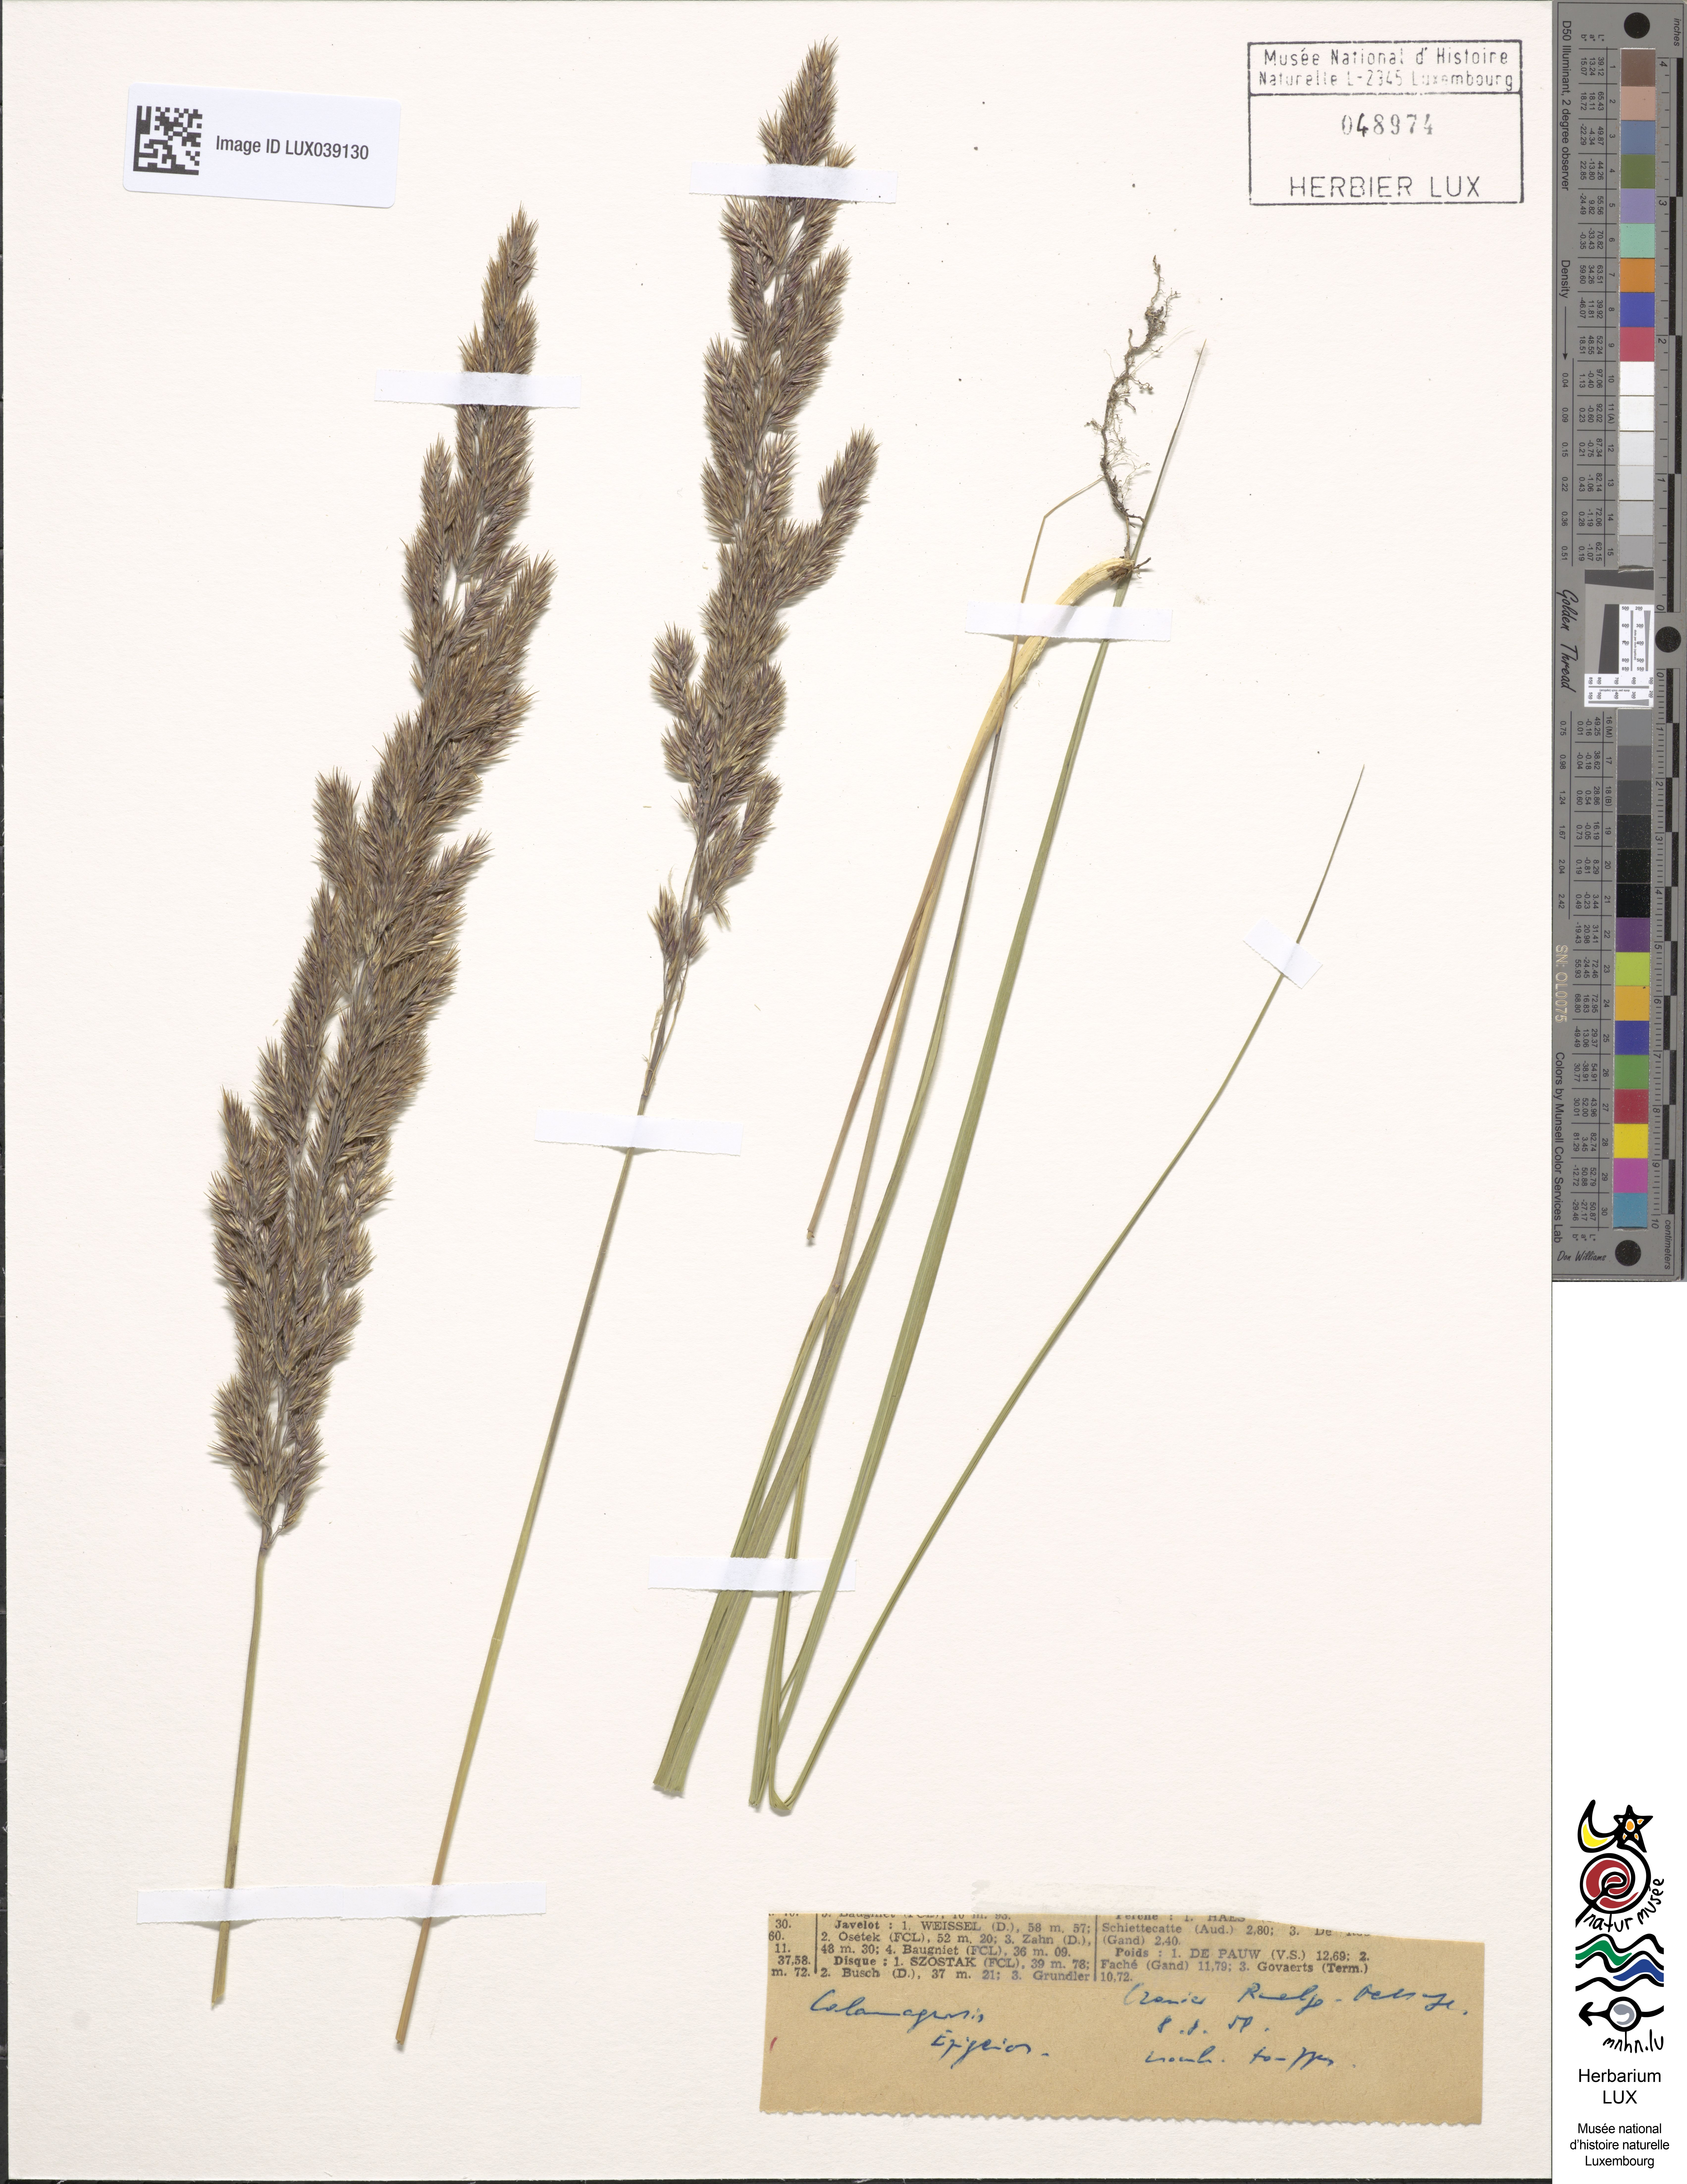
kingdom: Plantae
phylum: Tracheophyta
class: Liliopsida
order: Poales
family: Poaceae
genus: Calamagrostis
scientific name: Calamagrostis epigejos
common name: Wood small-reed
